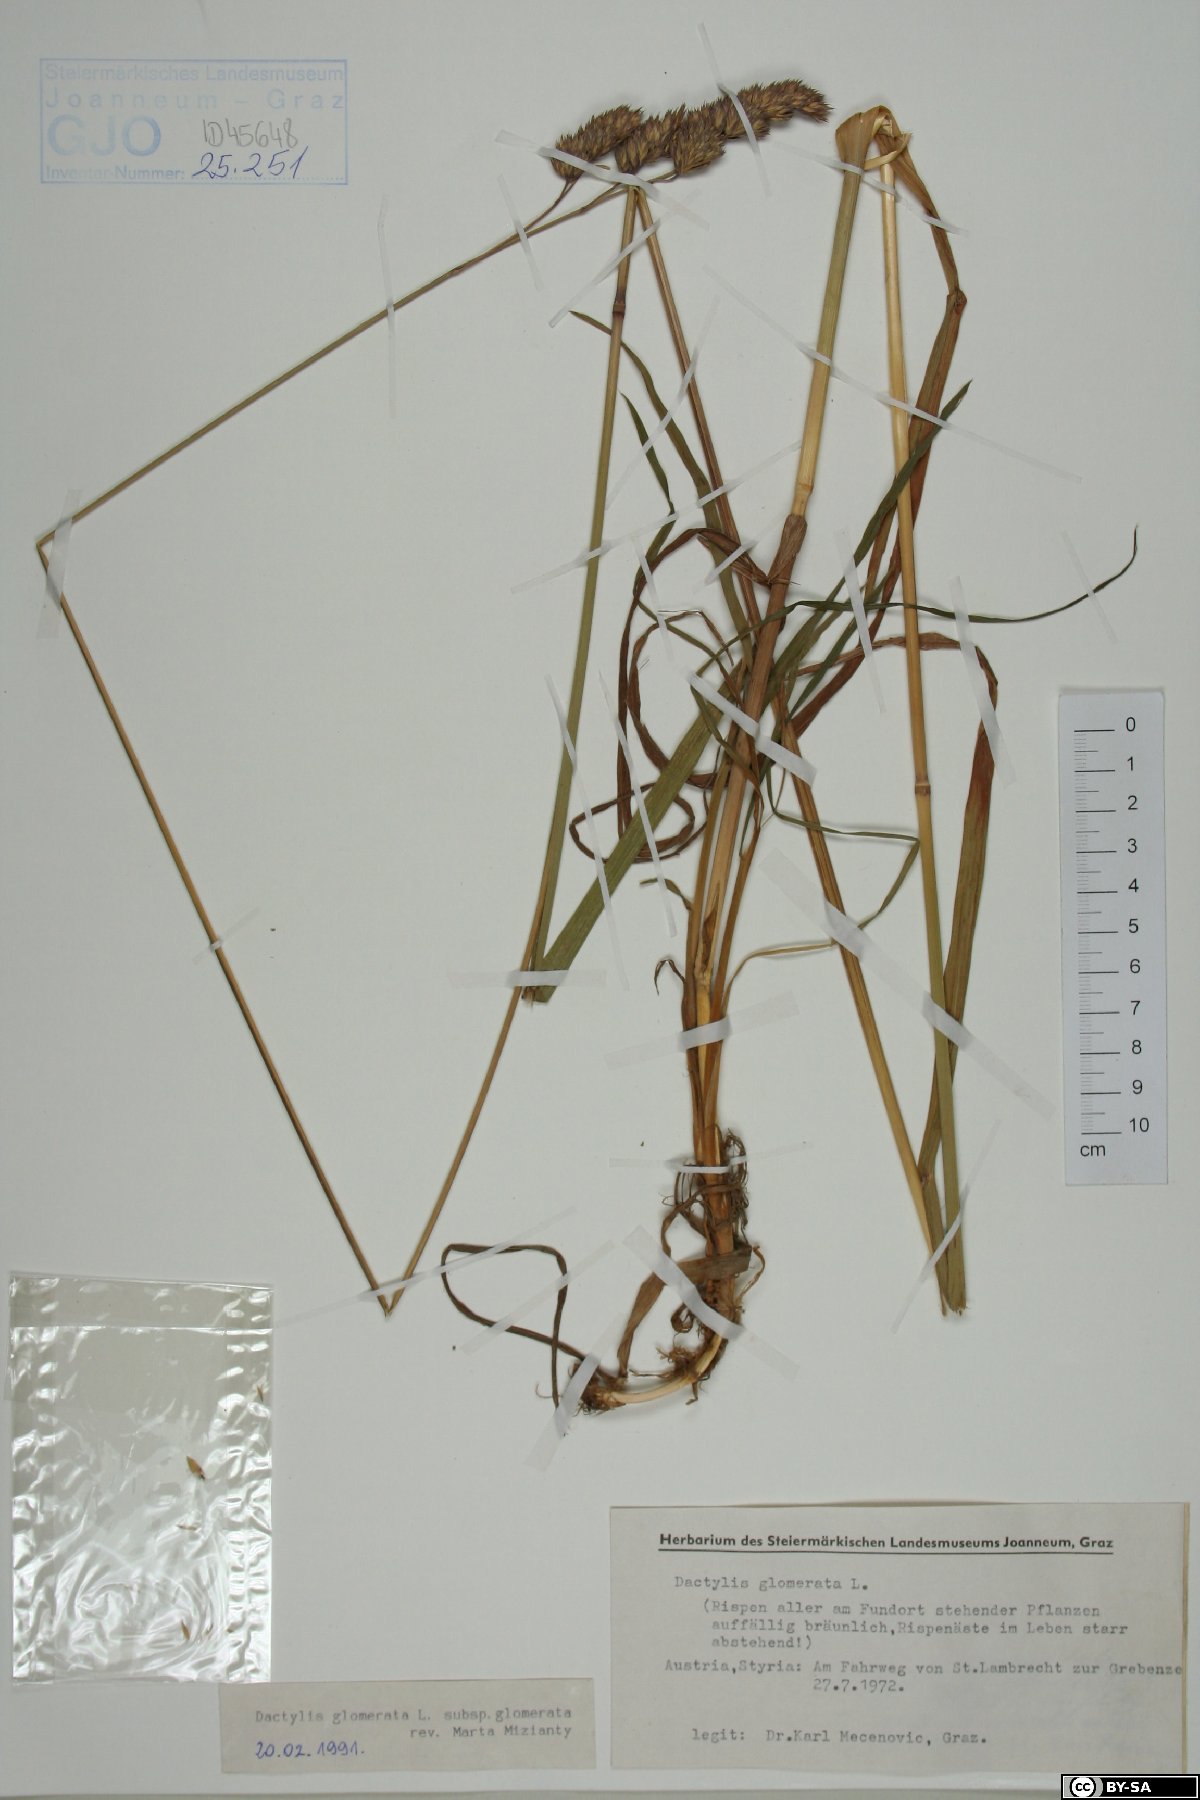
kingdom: Plantae
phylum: Tracheophyta
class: Liliopsida
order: Poales
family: Poaceae
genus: Dactylis
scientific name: Dactylis glomerata
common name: Orchardgrass
